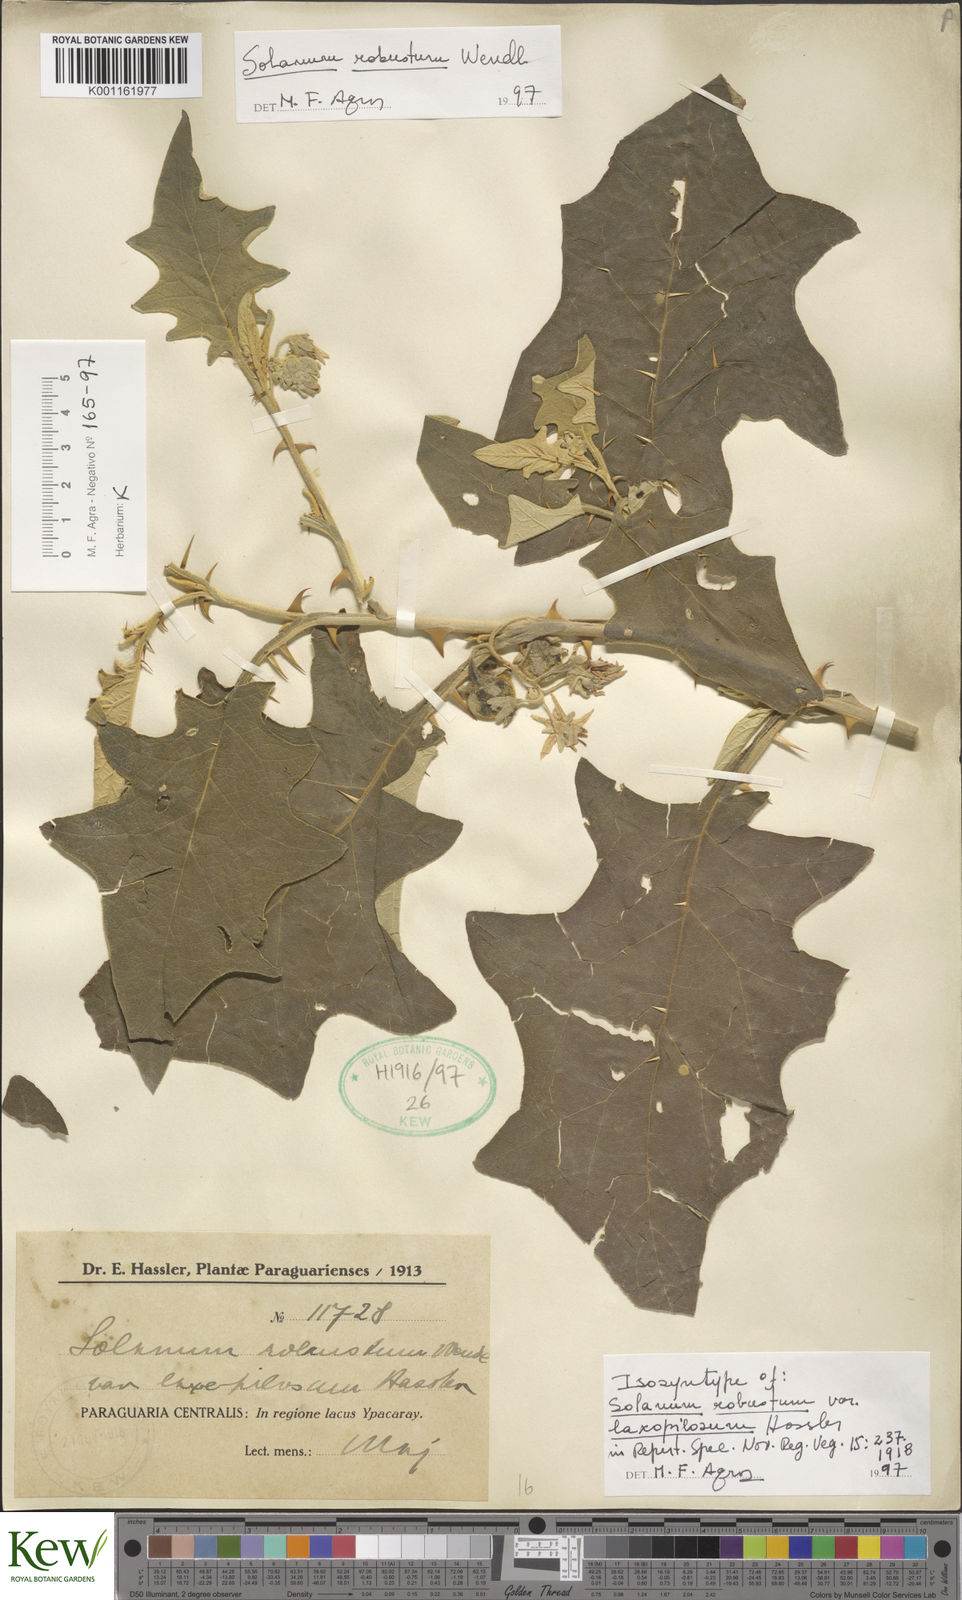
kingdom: Plantae
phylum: Tracheophyta
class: Magnoliopsida
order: Solanales
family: Solanaceae
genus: Solanum
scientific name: Solanum robustum
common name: Shrubby nightshade
